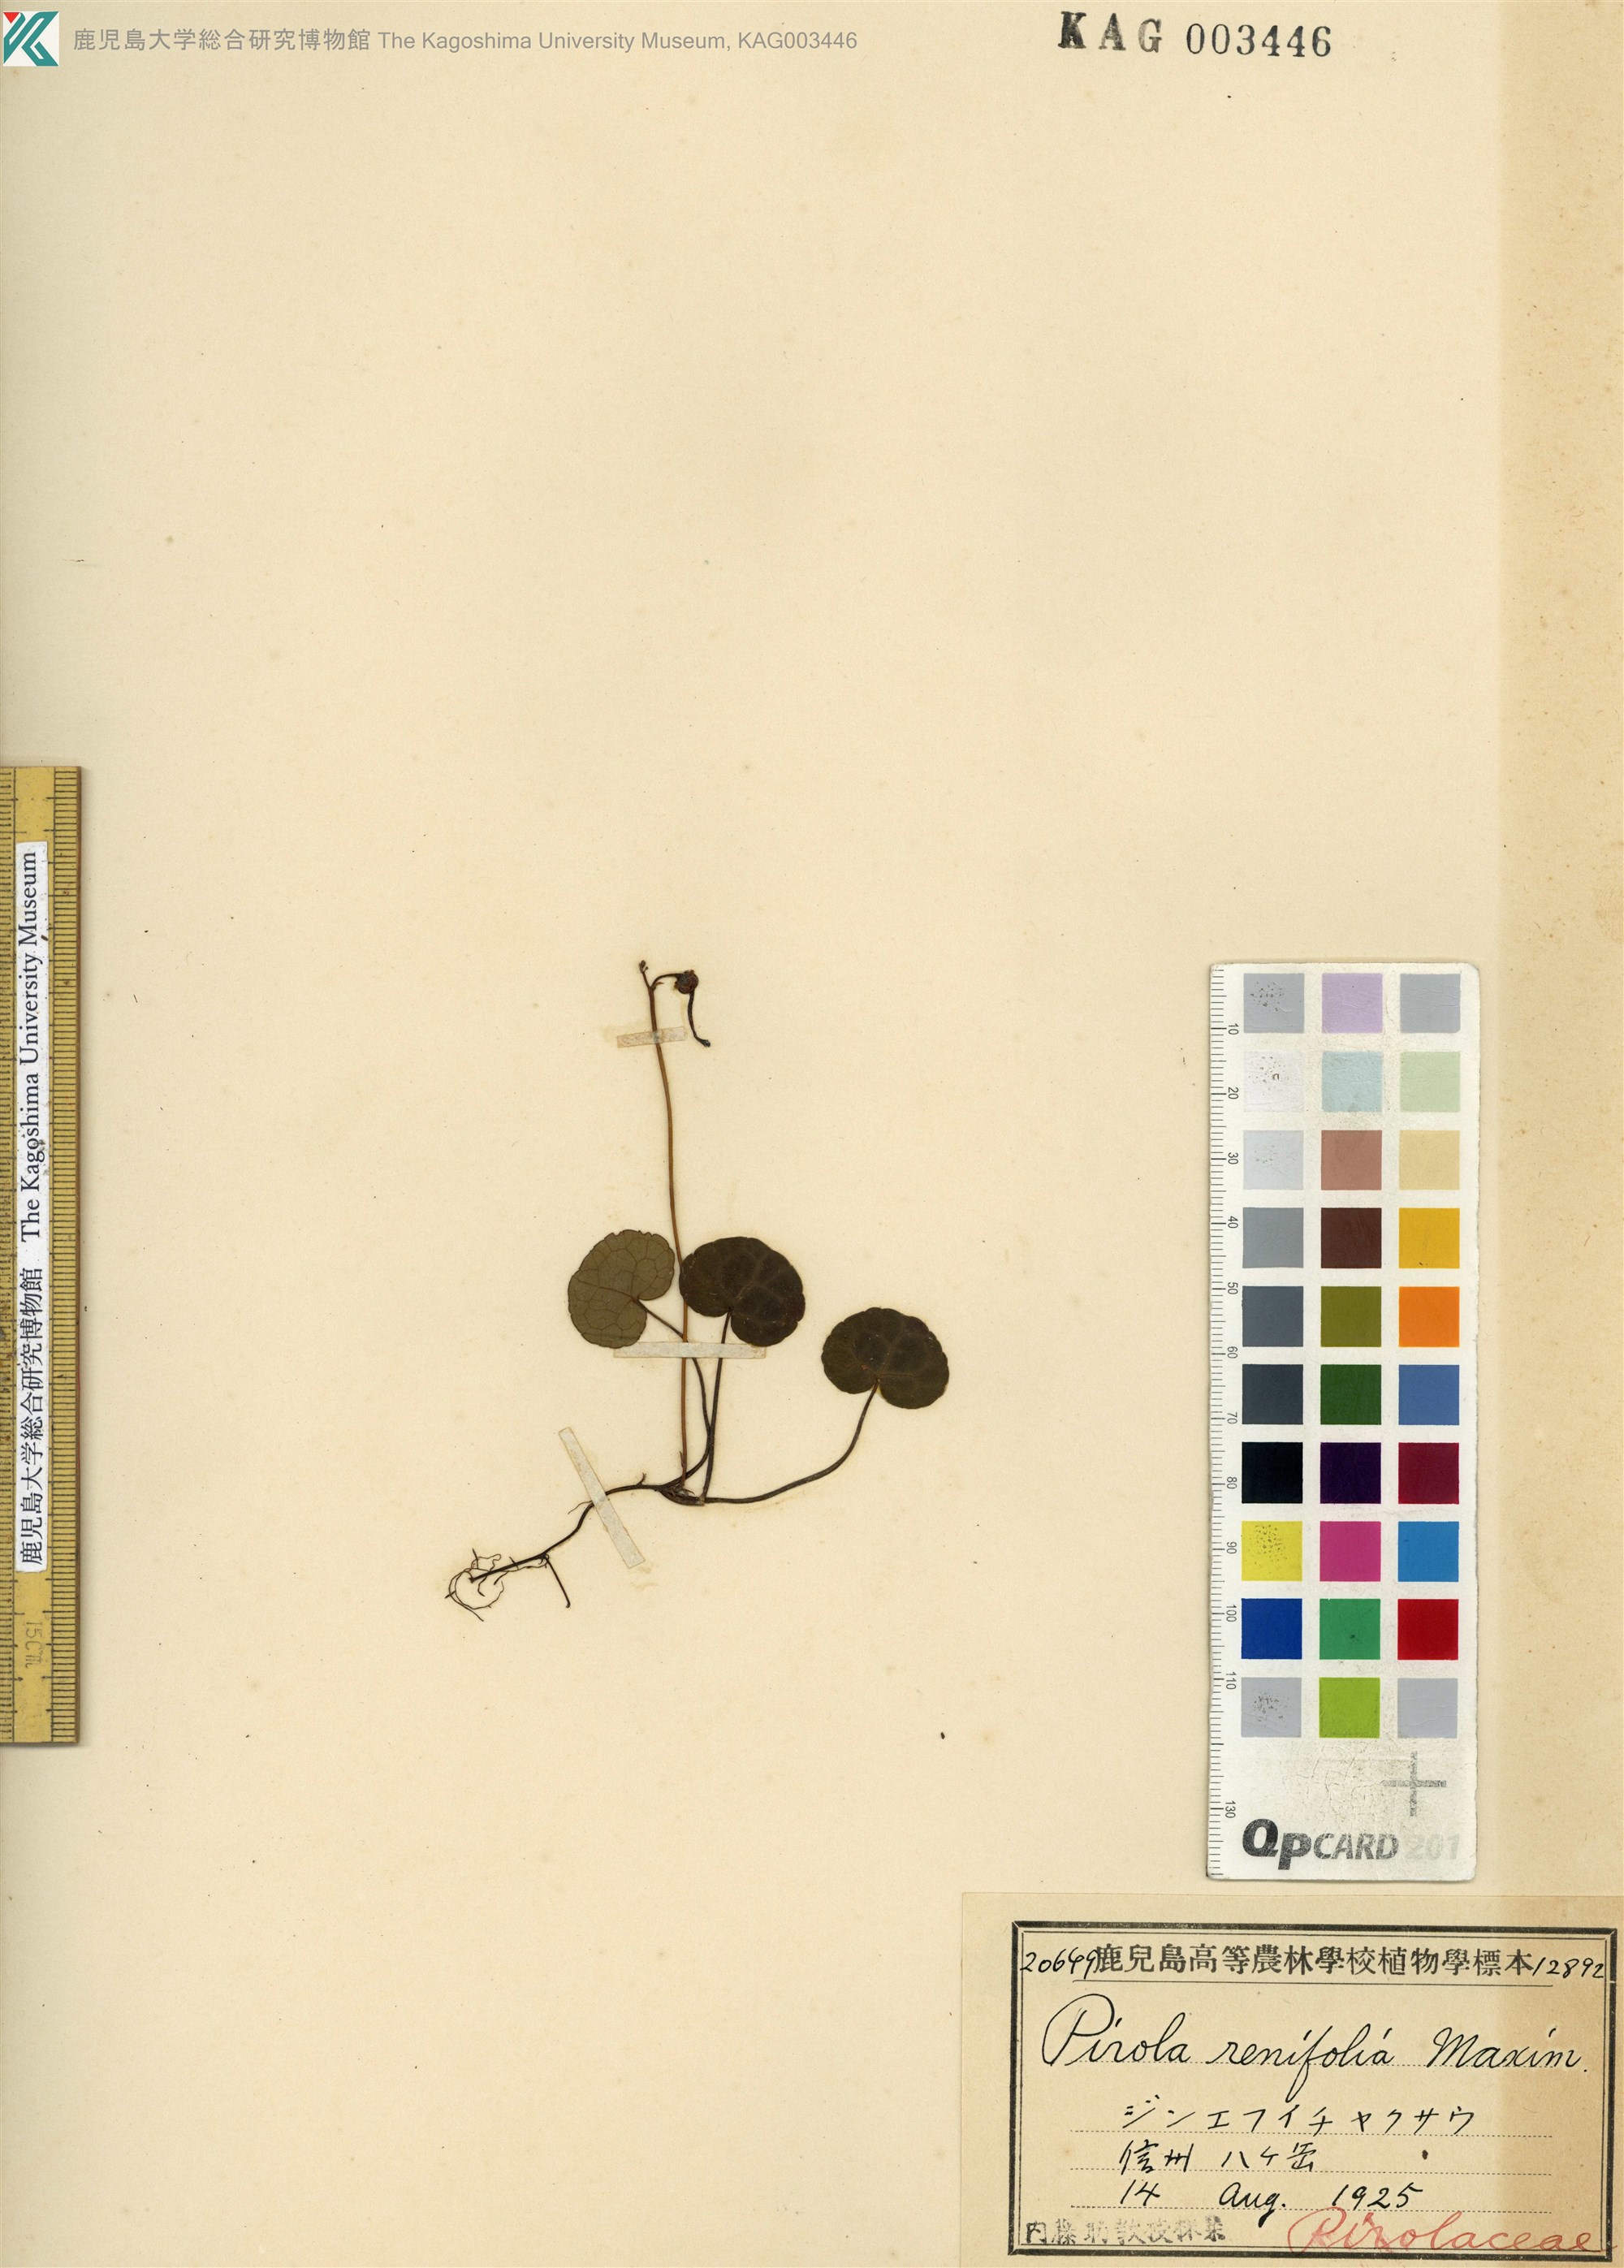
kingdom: Plantae
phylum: Tracheophyta
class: Magnoliopsida
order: Ericales
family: Ericaceae
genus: Pyrola
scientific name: Pyrola renifolia
